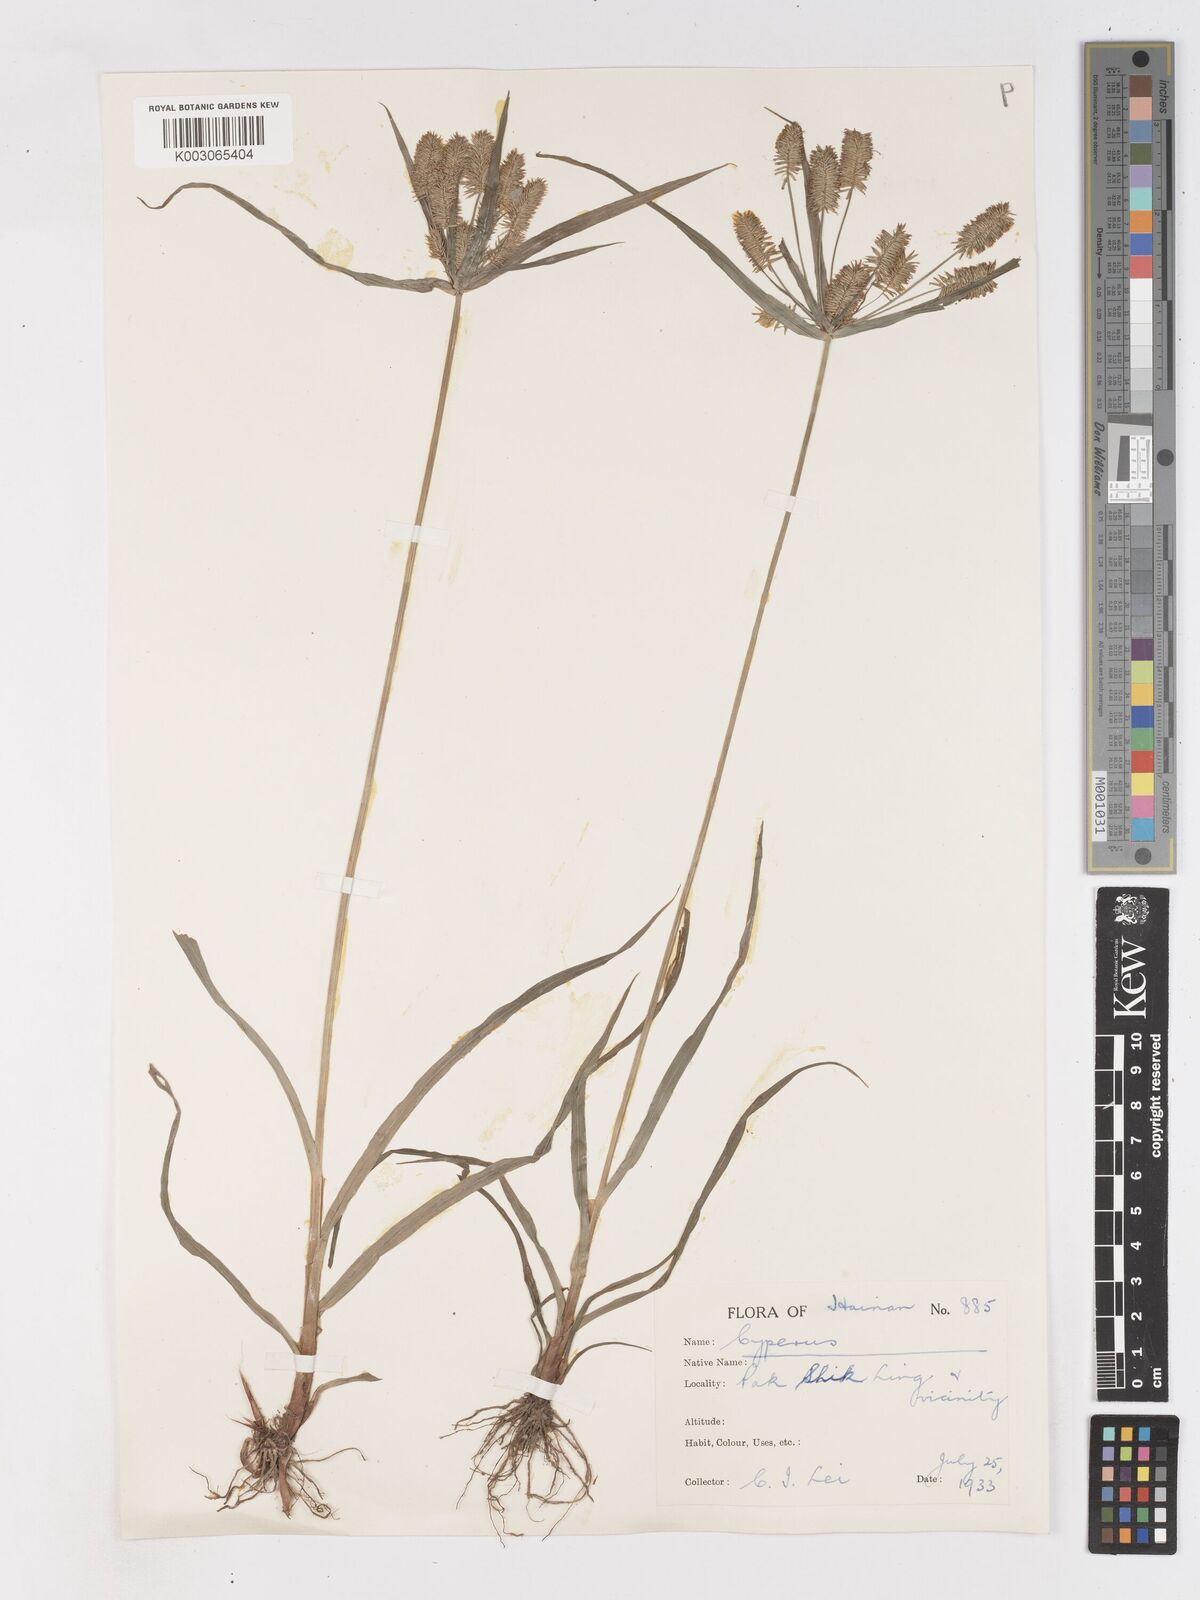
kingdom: Plantae
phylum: Tracheophyta
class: Liliopsida
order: Poales
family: Cyperaceae
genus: Cyperus
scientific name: Cyperus cyperoides
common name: Pacific island flat sedge
